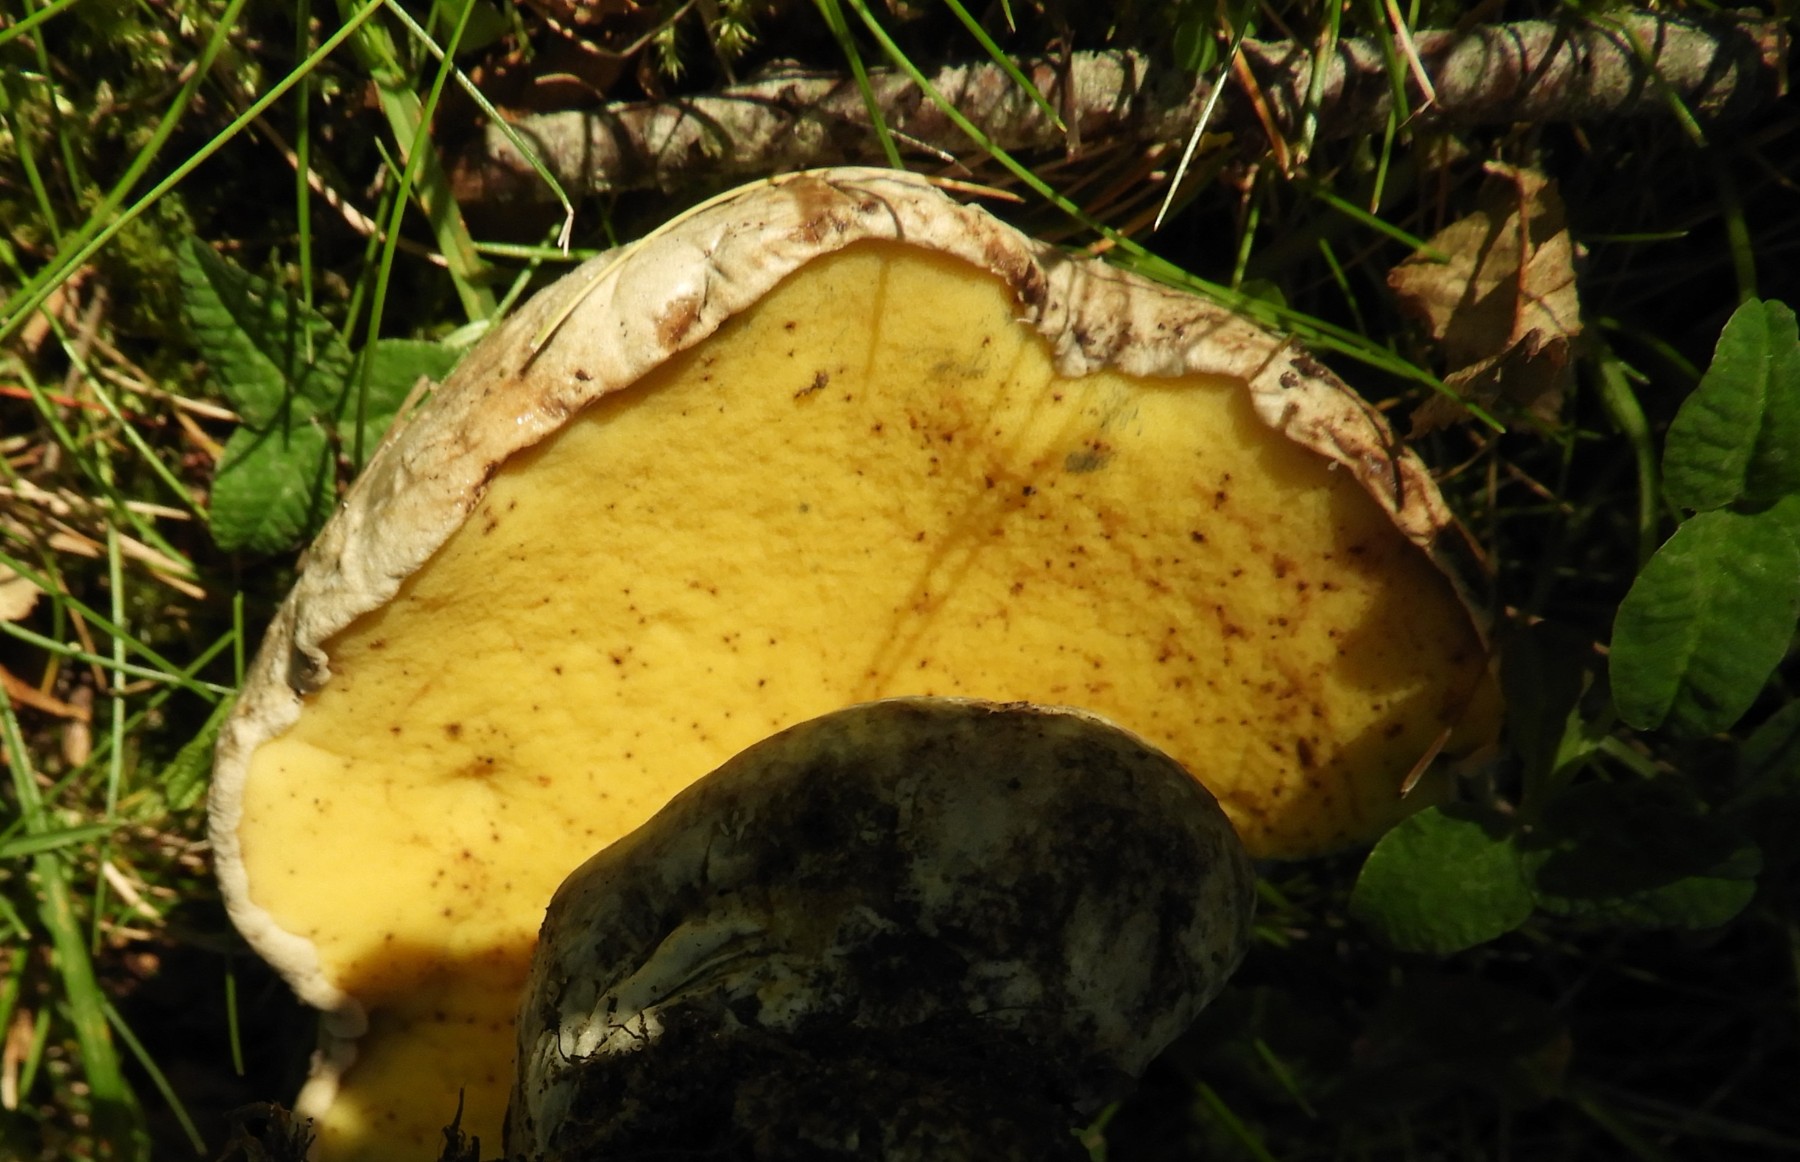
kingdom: Fungi
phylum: Basidiomycota
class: Agaricomycetes
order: Boletales
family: Boletaceae
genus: Caloboletus
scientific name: Caloboletus radicans
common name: rod-rørhat
